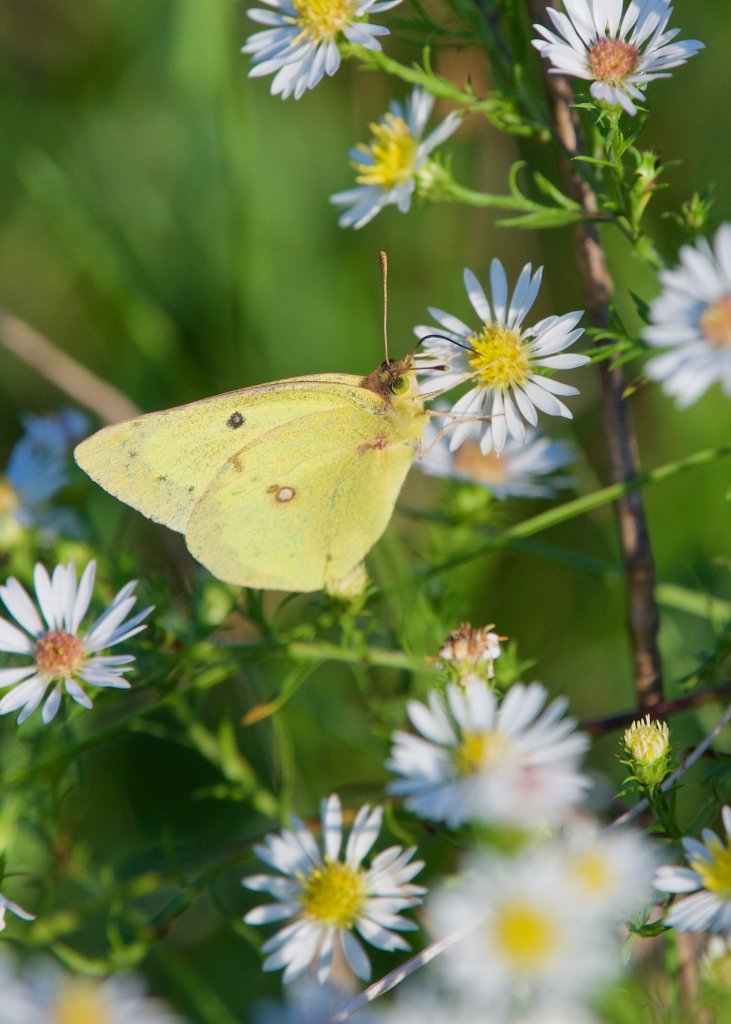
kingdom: Animalia
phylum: Arthropoda
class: Insecta
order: Lepidoptera
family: Pieridae
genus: Colias
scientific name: Colias philodice
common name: Clouded Sulphur
